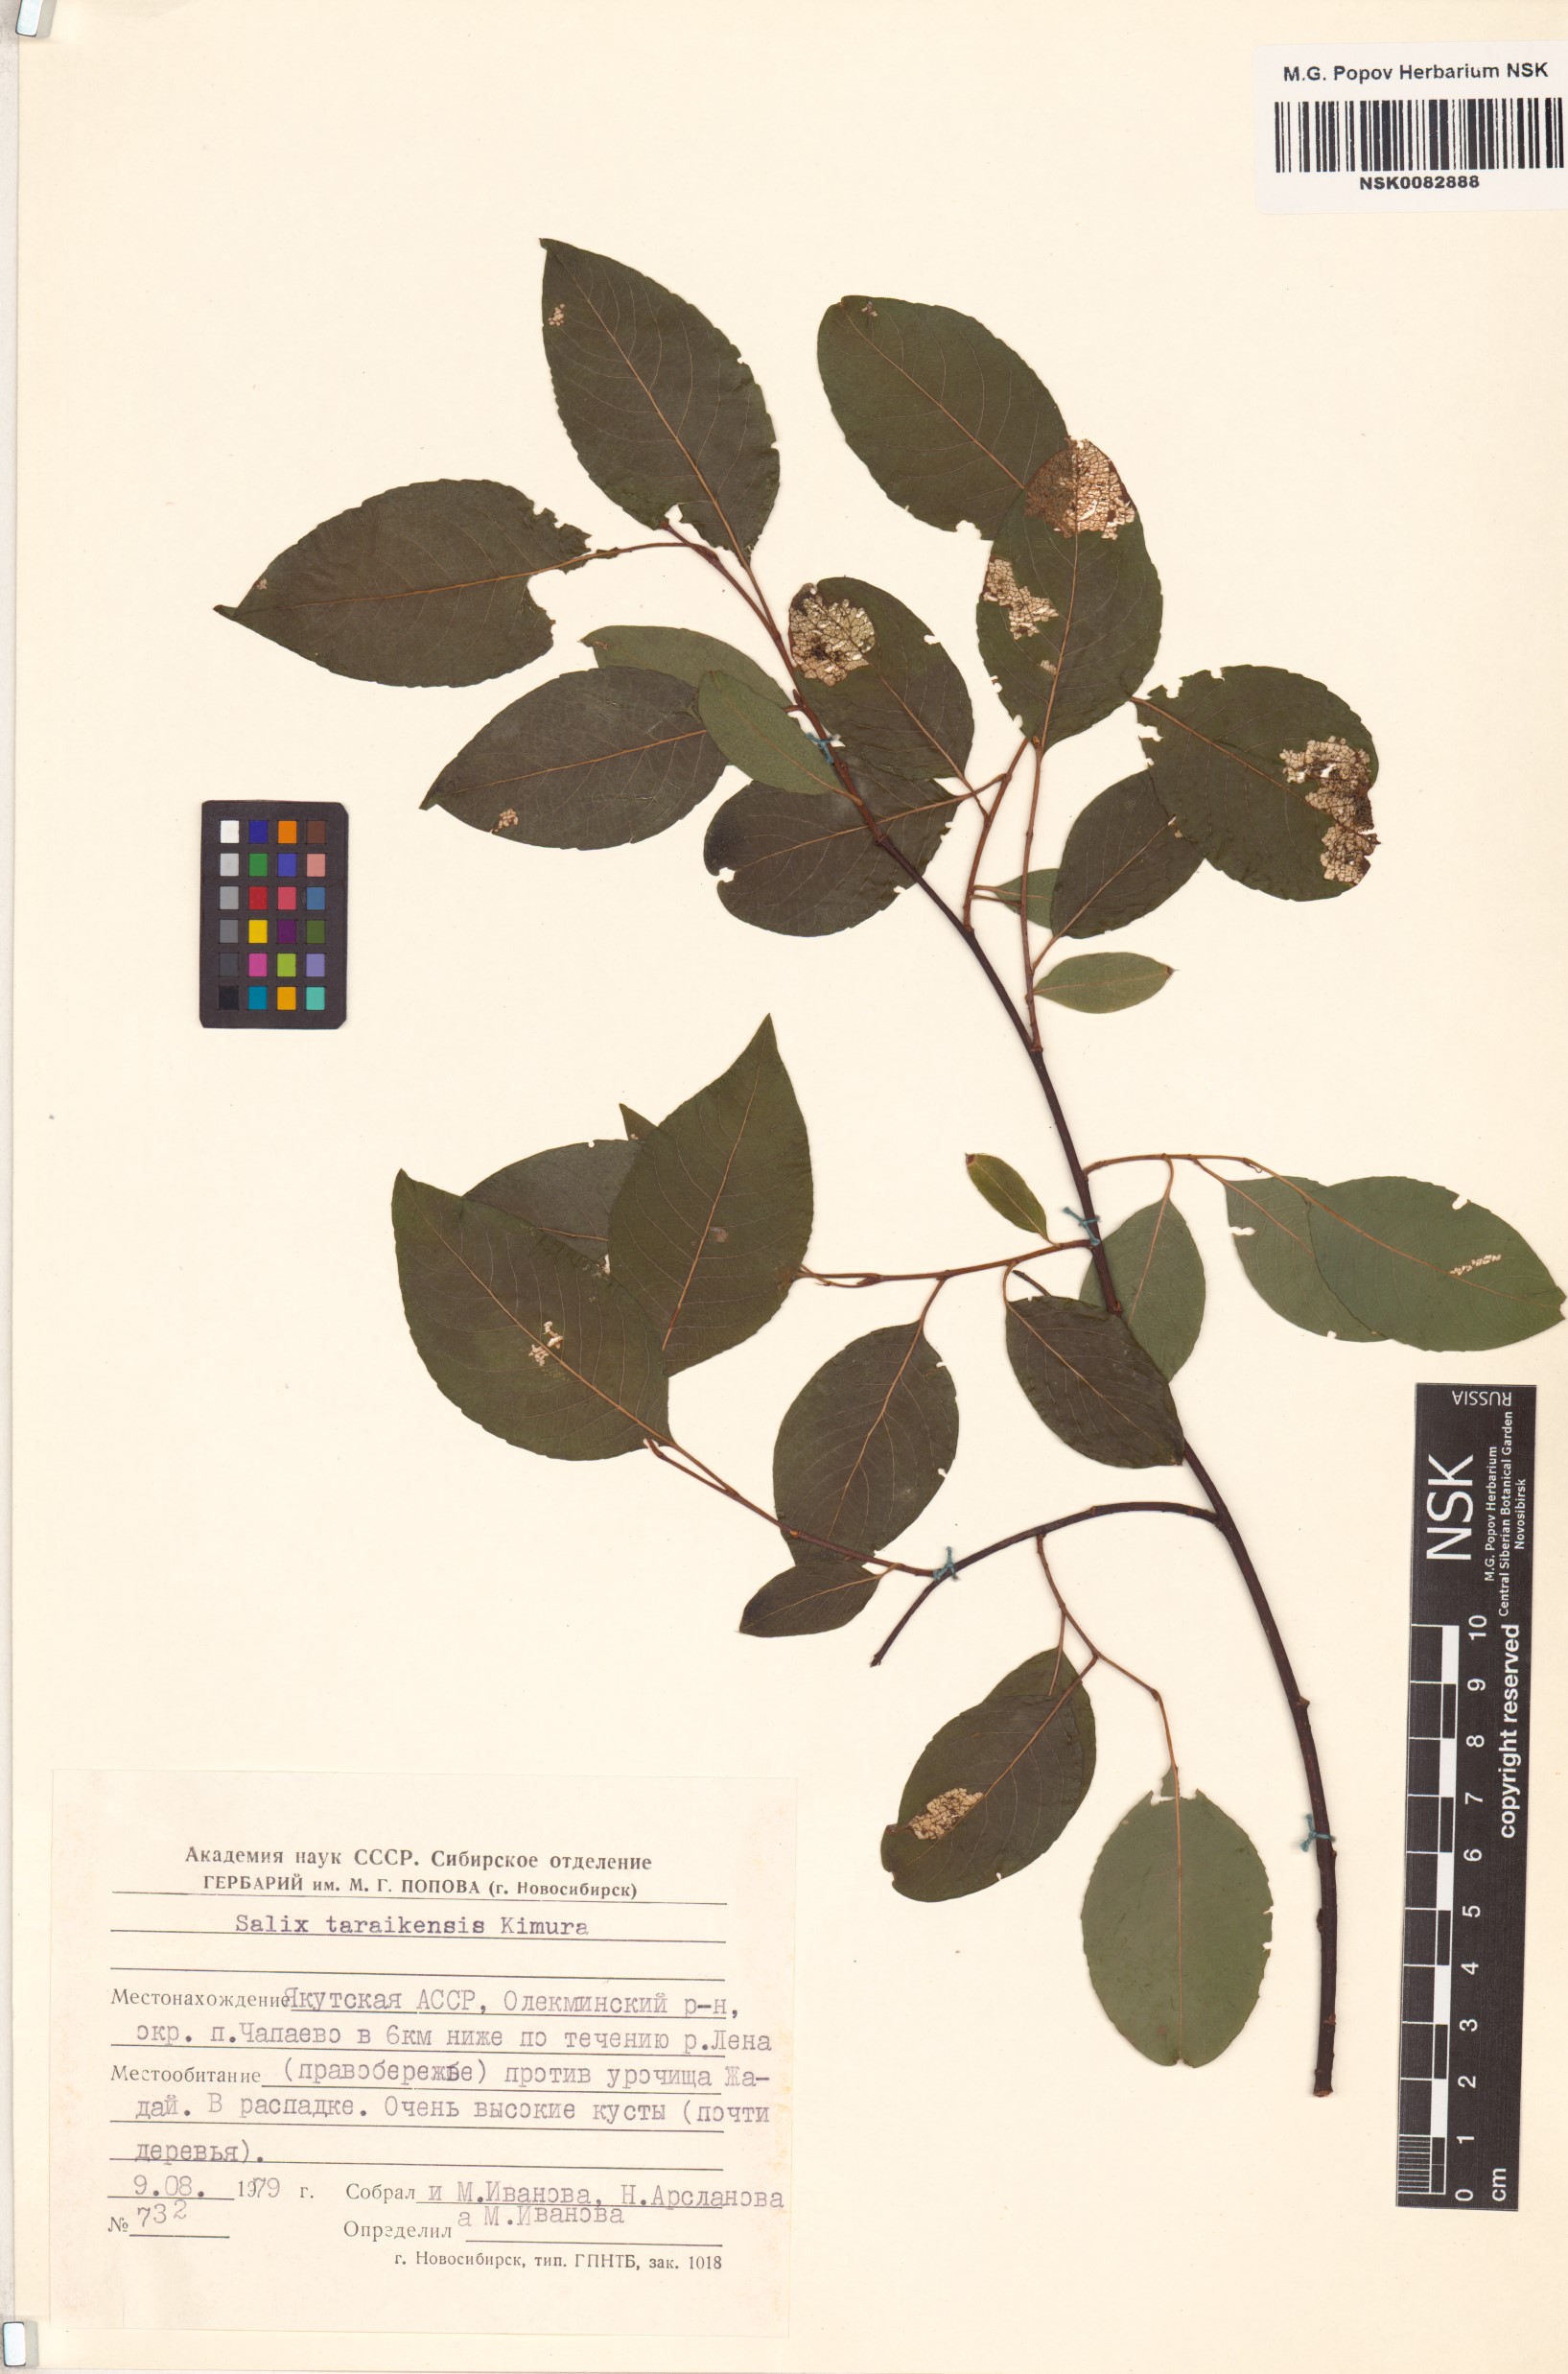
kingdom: Plantae
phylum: Tracheophyta
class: Magnoliopsida
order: Malpighiales
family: Salicaceae
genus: Salix
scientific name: Salix taraikensis
